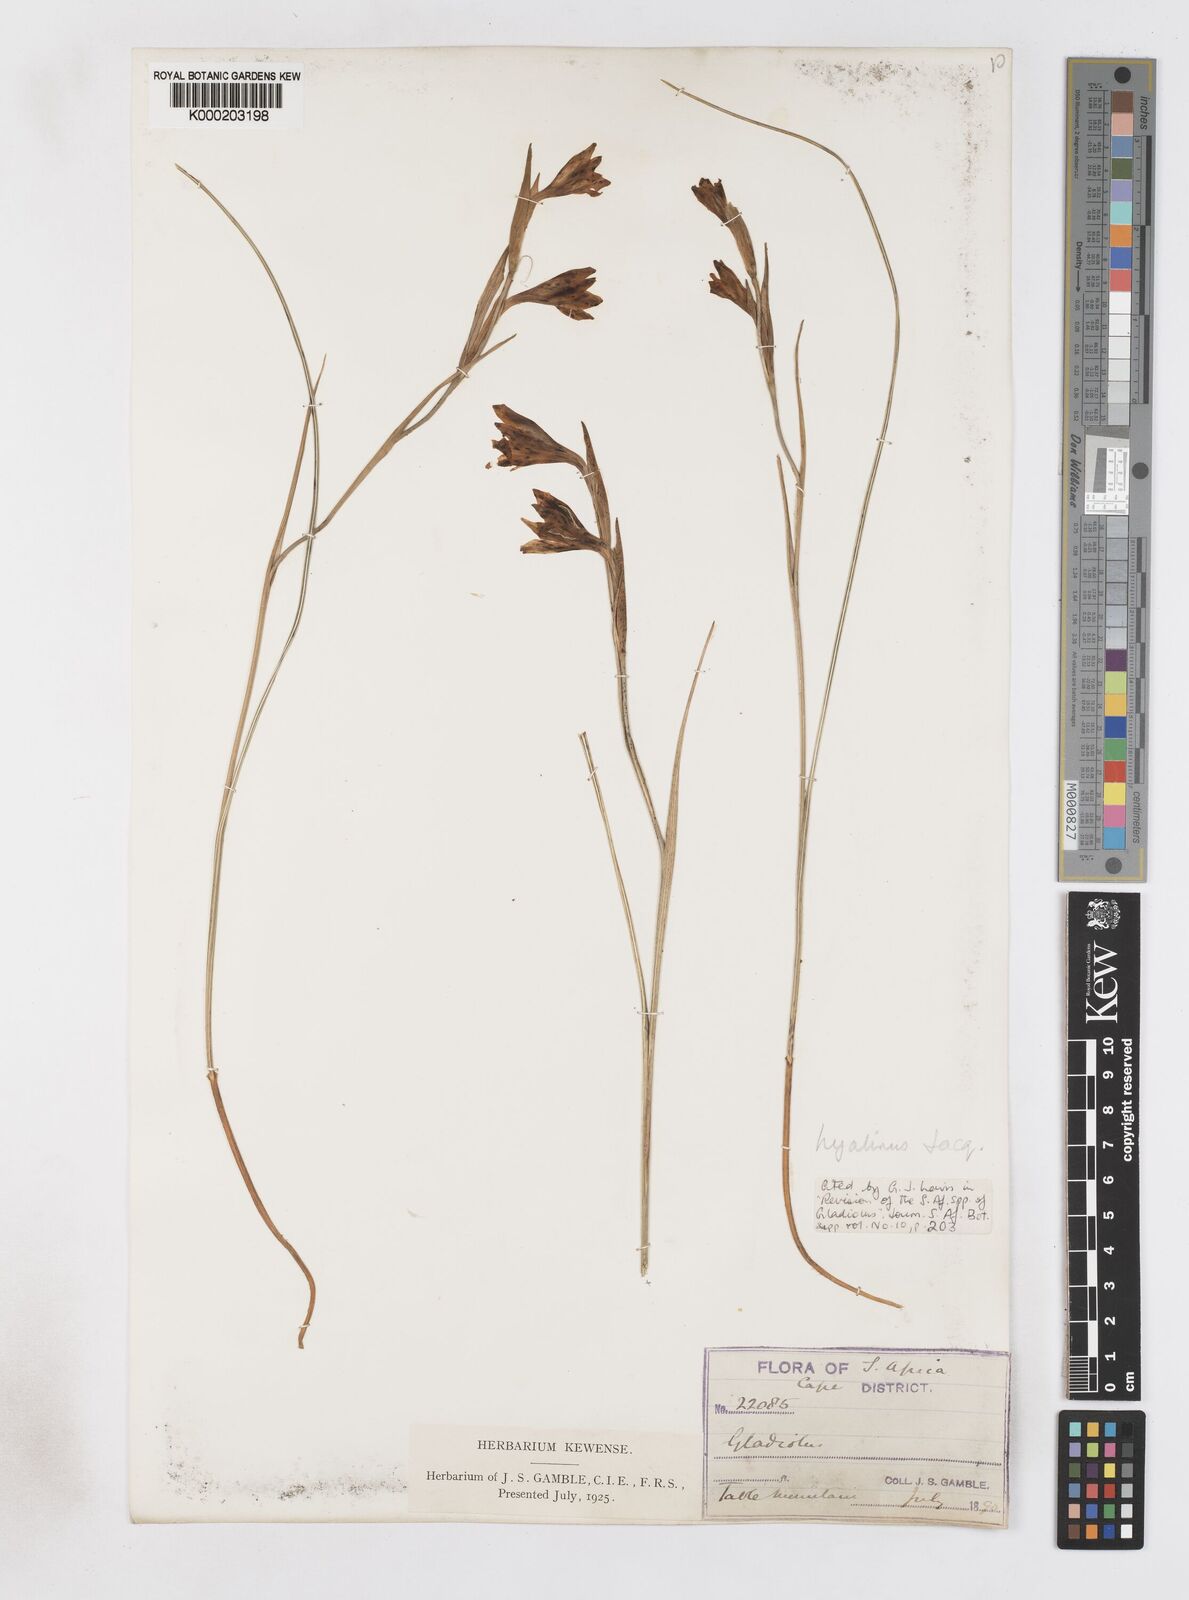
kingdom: Plantae
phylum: Tracheophyta
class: Liliopsida
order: Asparagales
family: Iridaceae
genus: Gladiolus
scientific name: Gladiolus hyalinus
